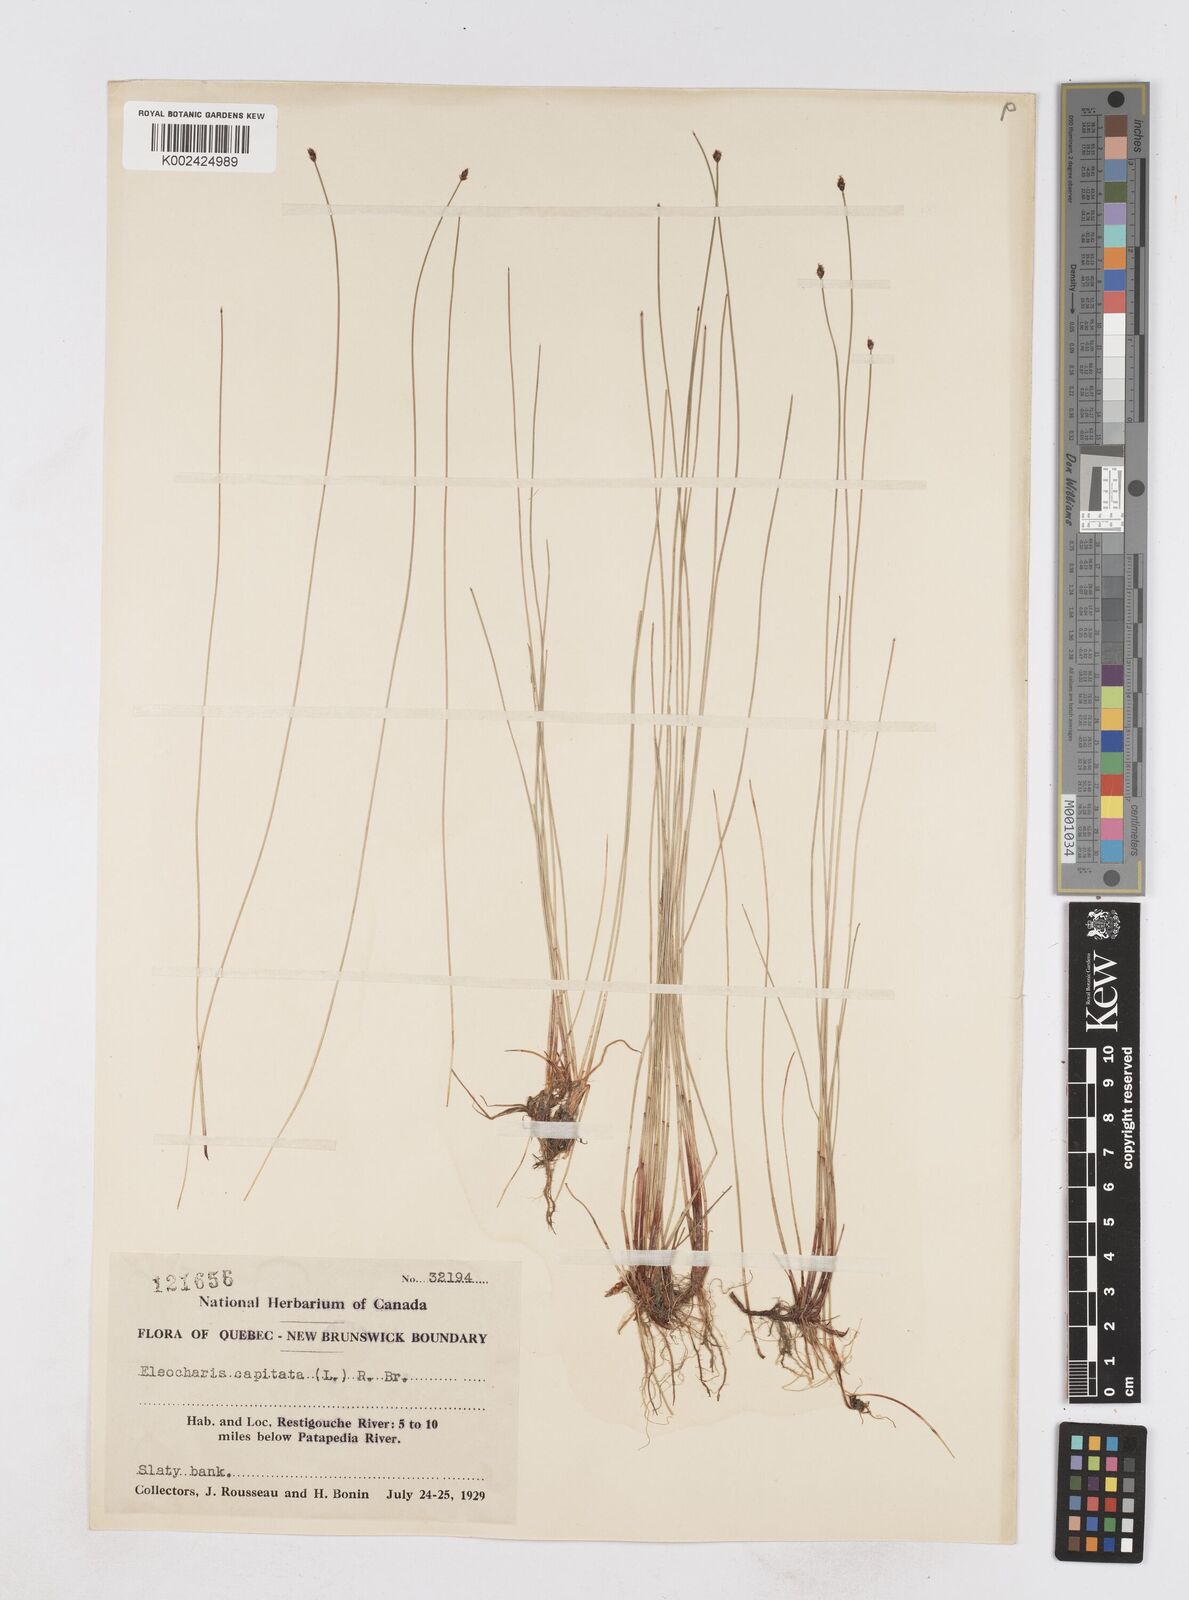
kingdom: Plantae
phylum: Tracheophyta
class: Liliopsida
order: Poales
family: Cyperaceae
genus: Eleocharis
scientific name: Eleocharis geniculata
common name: Canada spikesedge
